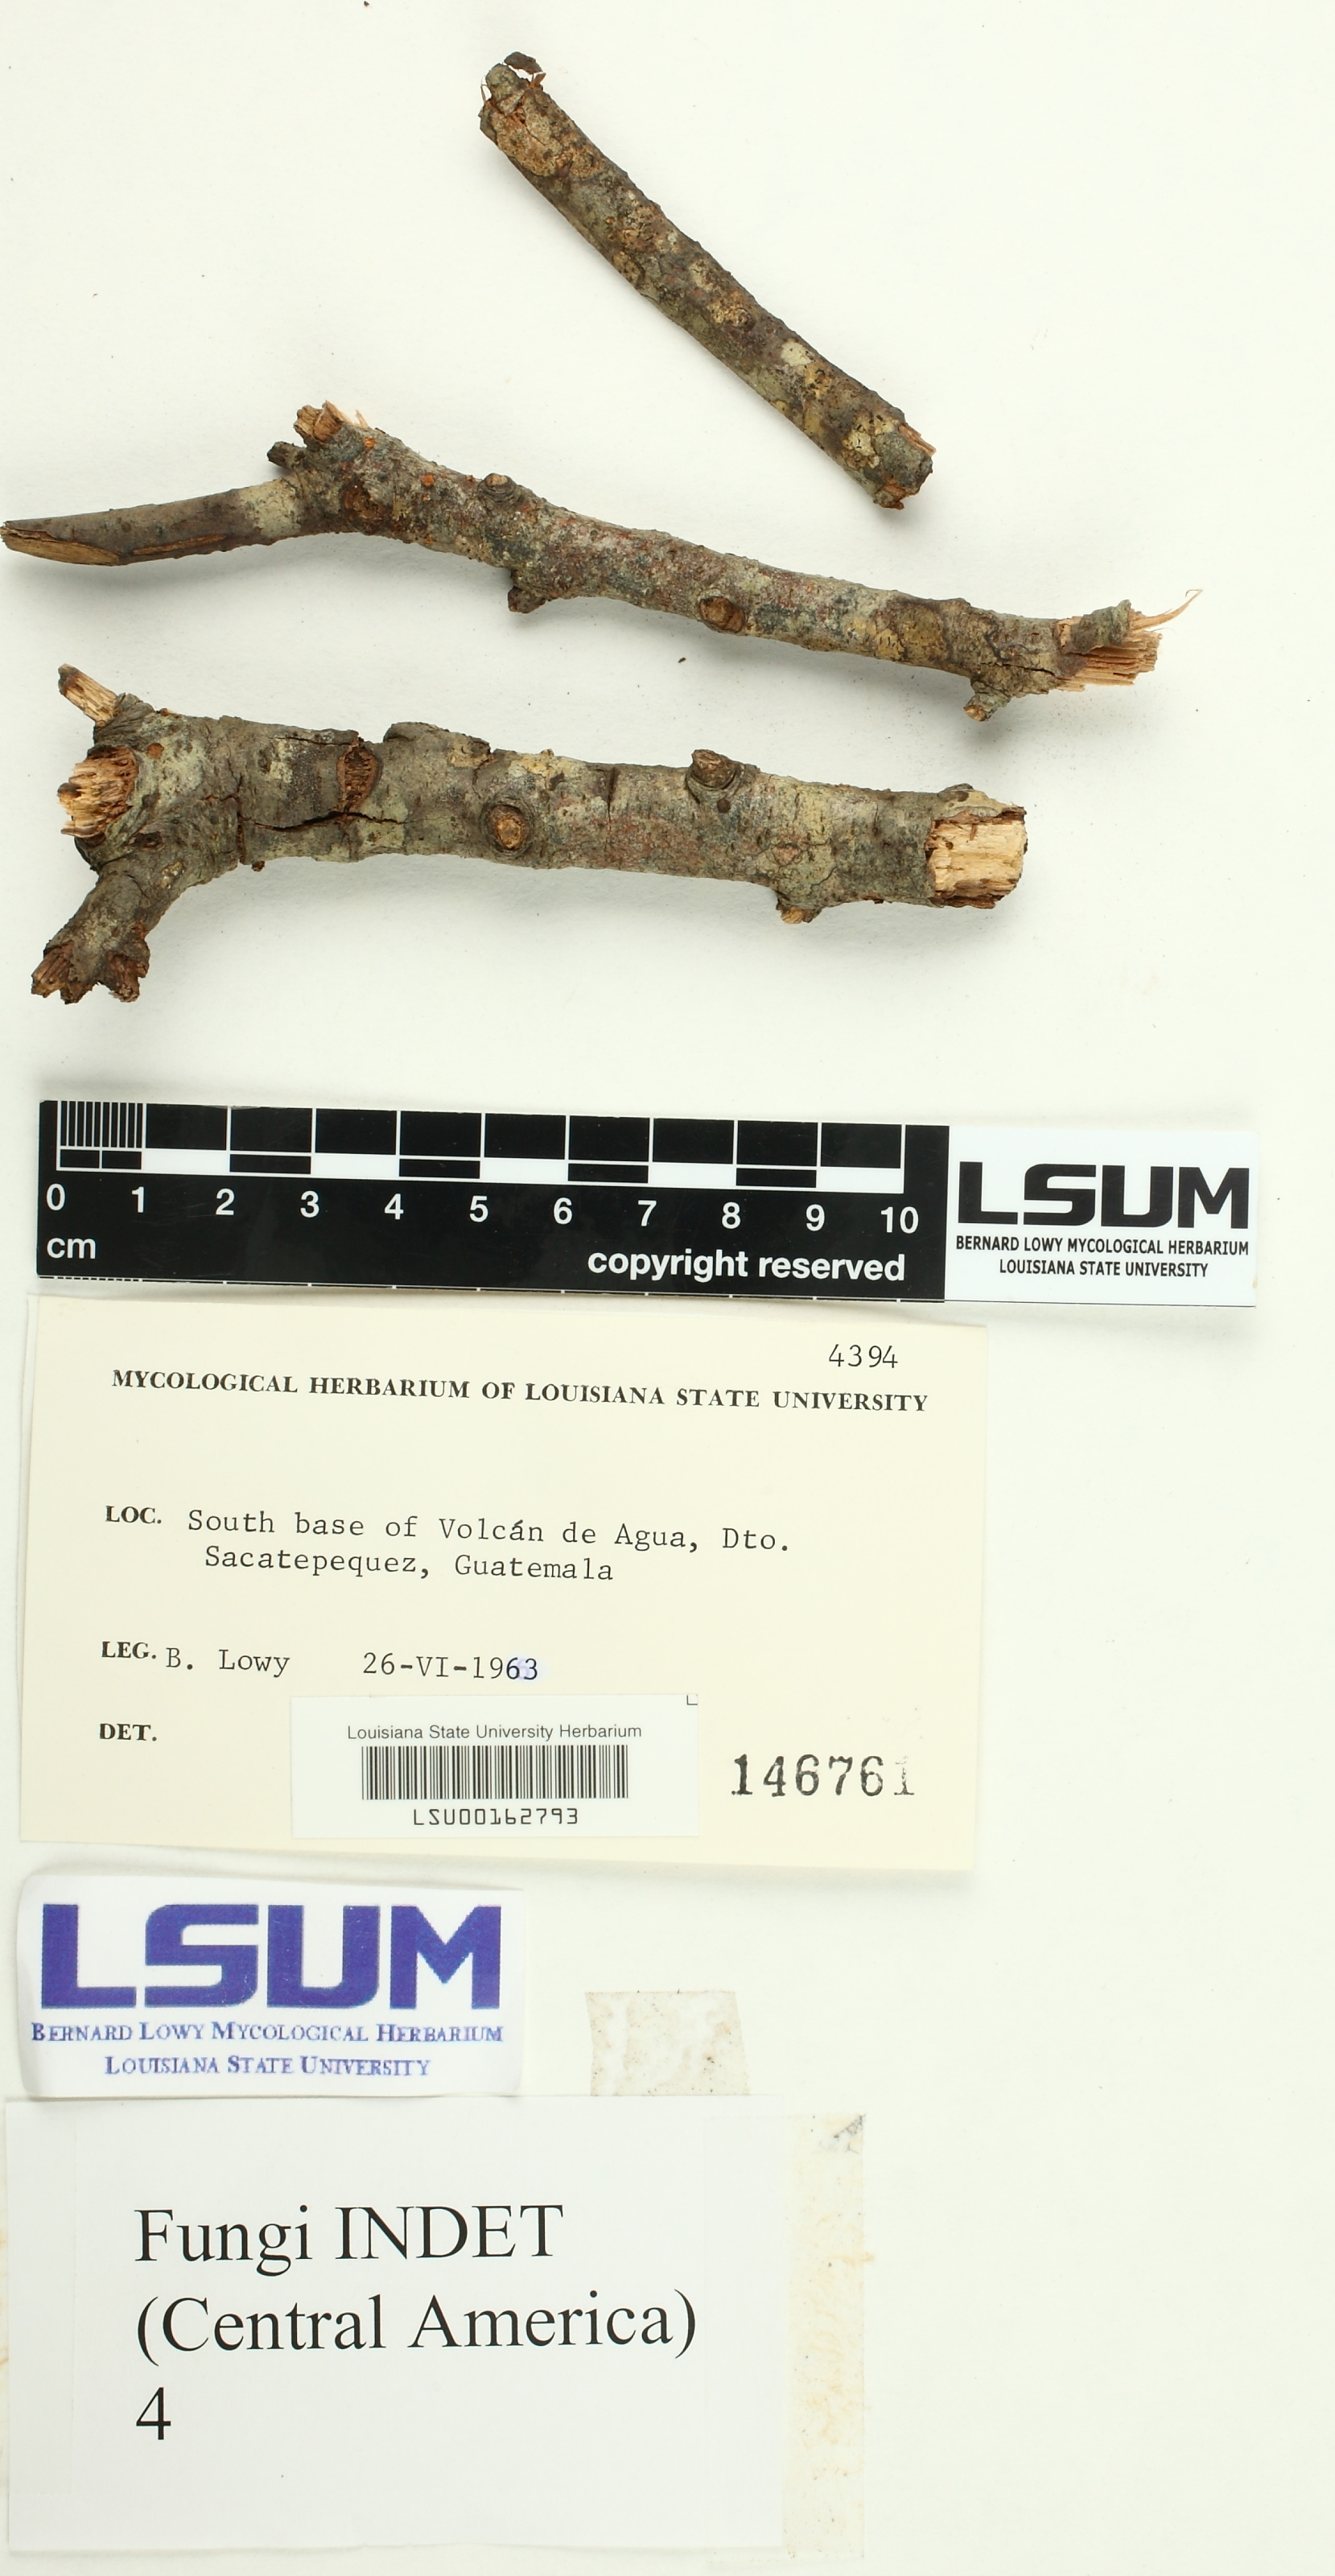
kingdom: Fungi
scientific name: Fungi
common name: Fungi
